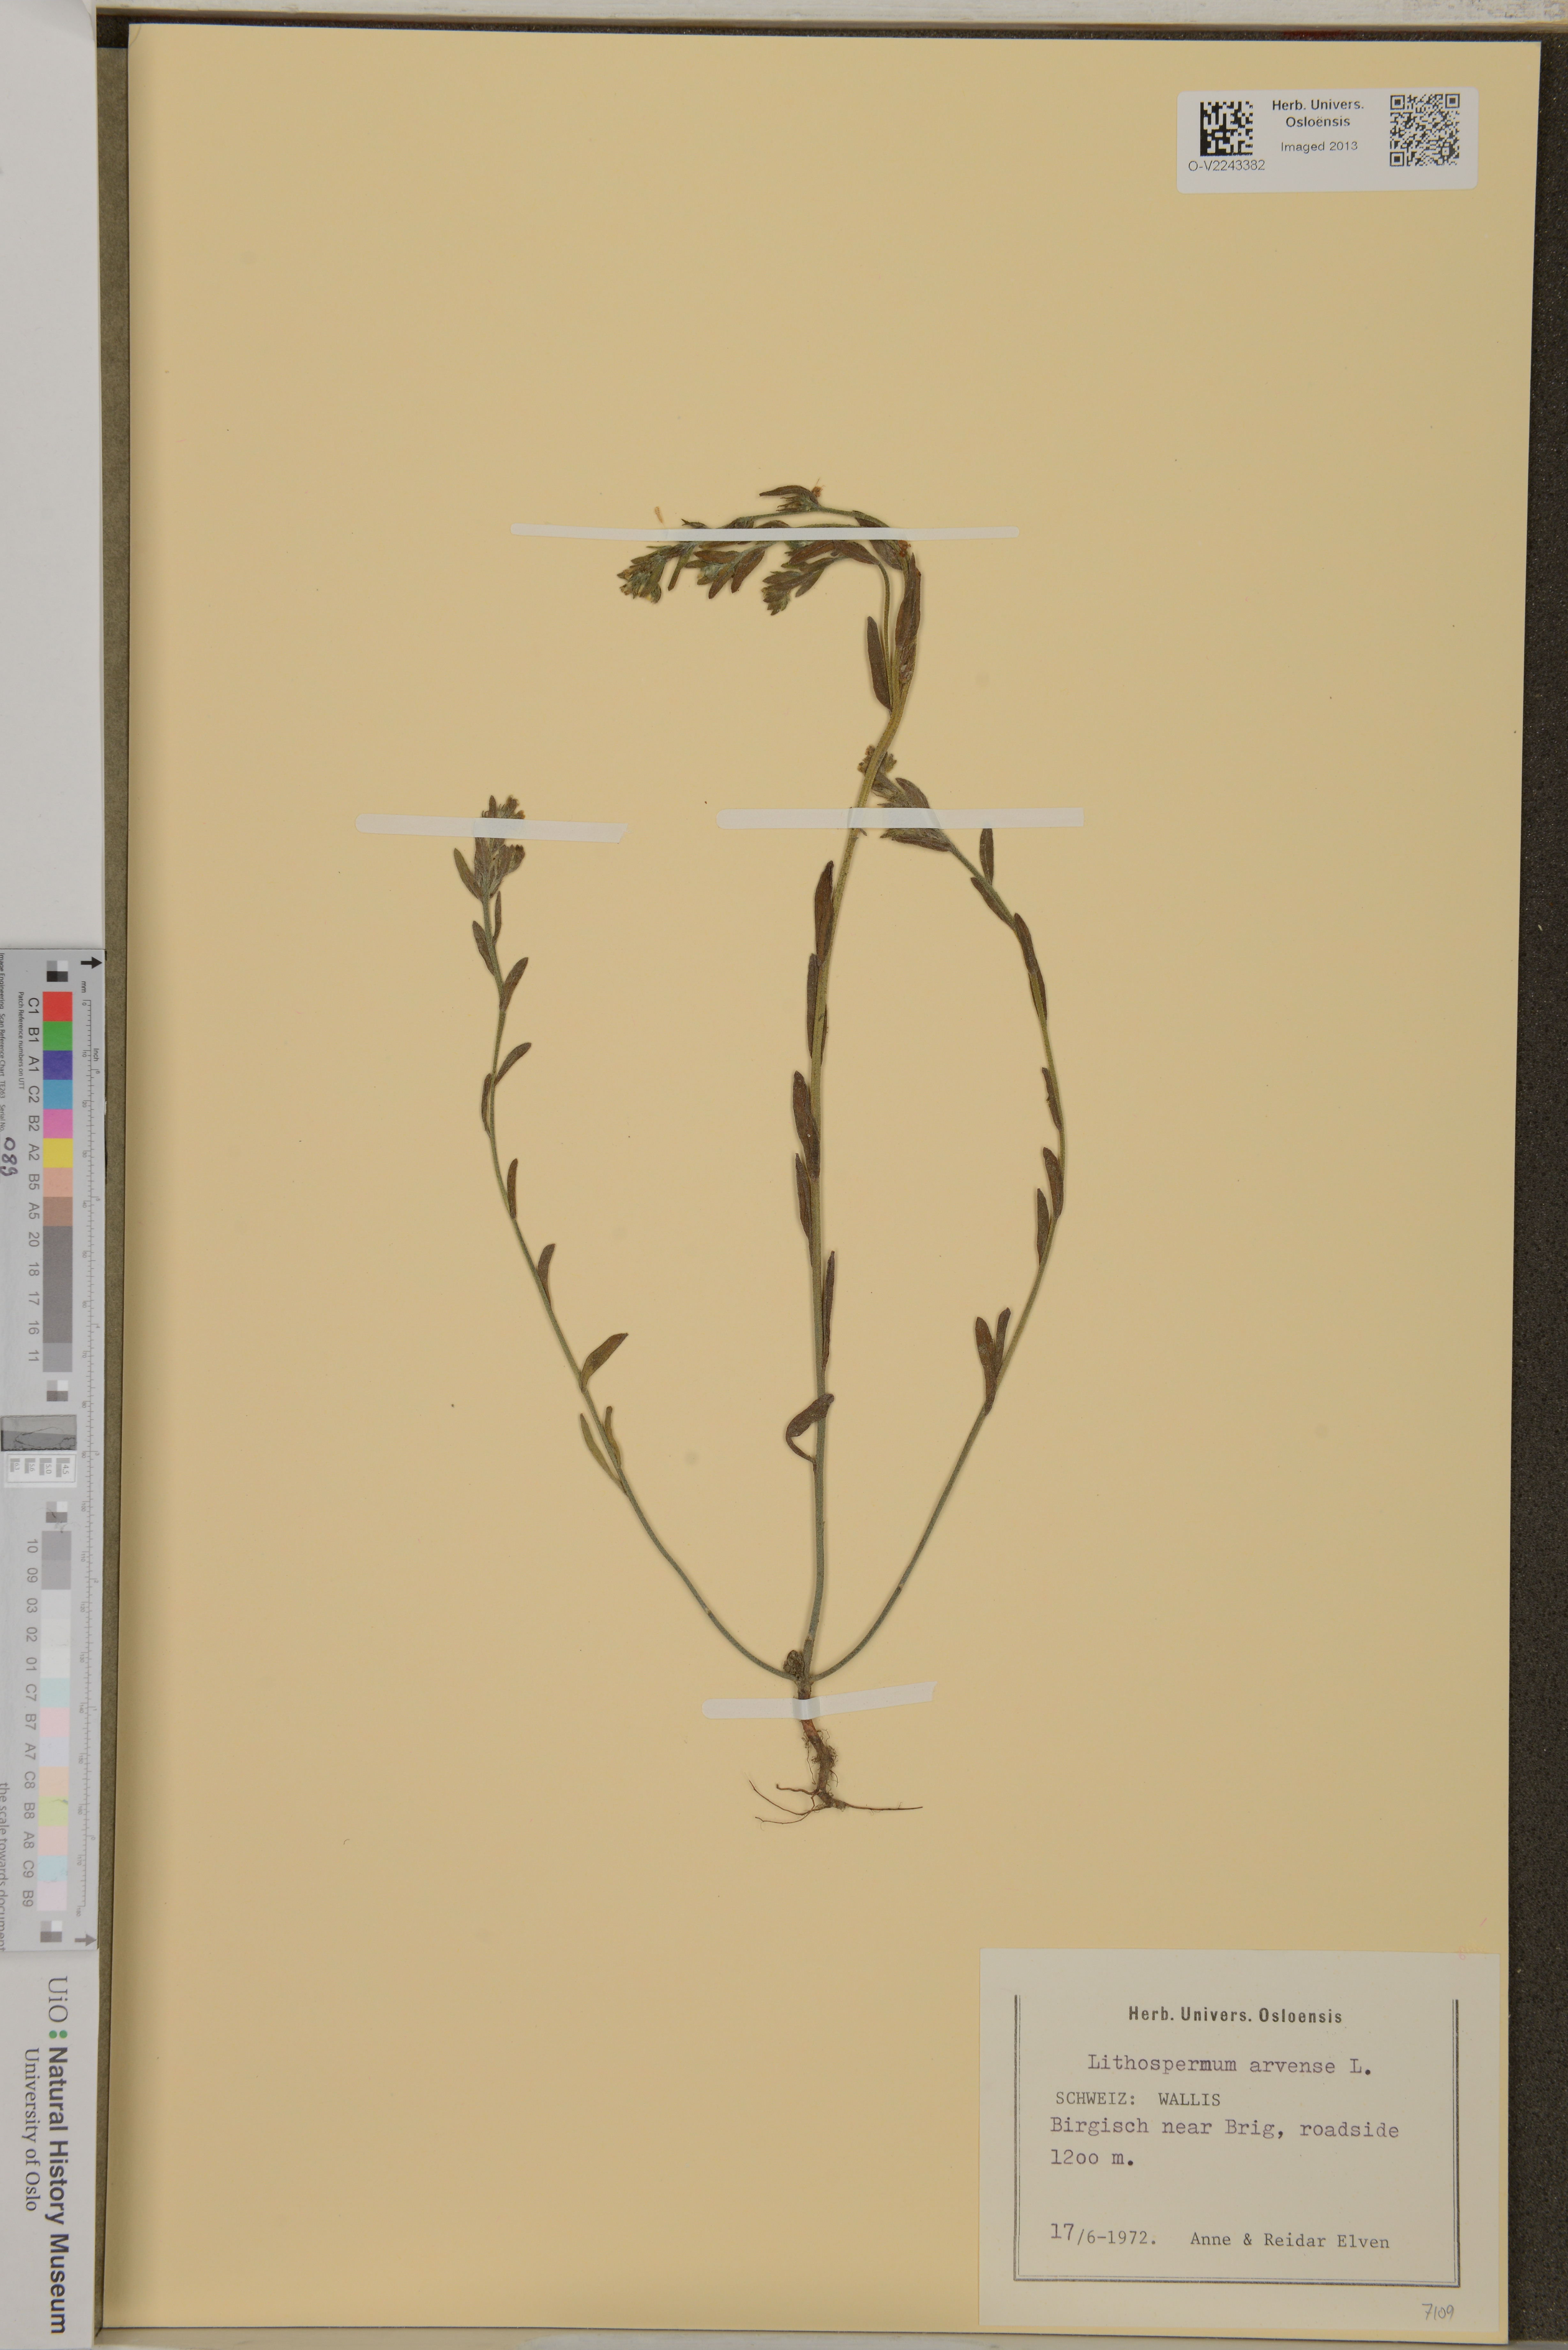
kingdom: Plantae
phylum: Tracheophyta
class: Magnoliopsida
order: Boraginales
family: Boraginaceae
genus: Buglossoides
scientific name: Buglossoides arvensis
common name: Corn gromwell
